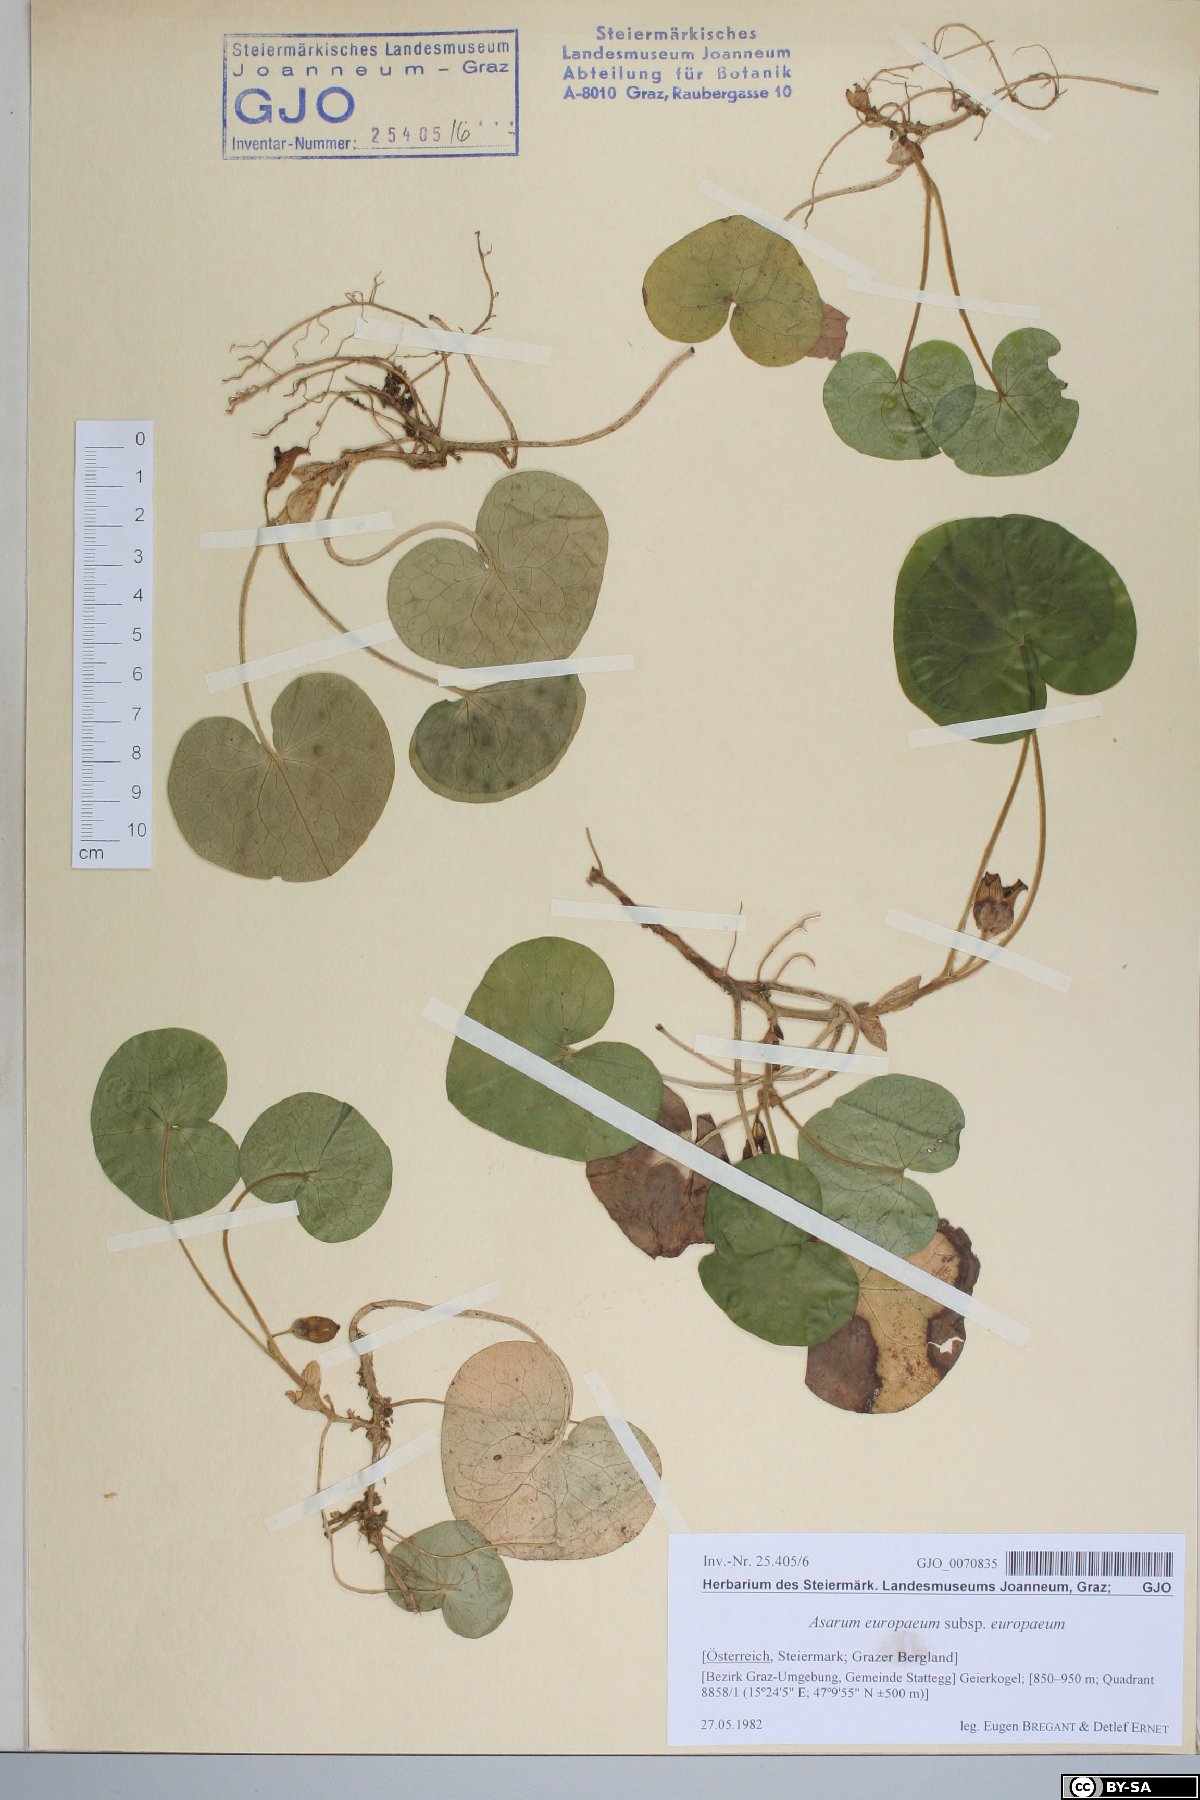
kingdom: Plantae
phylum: Tracheophyta
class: Magnoliopsida
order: Piperales
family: Aristolochiaceae
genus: Asarum
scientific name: Asarum europaeum
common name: Asarabacca
